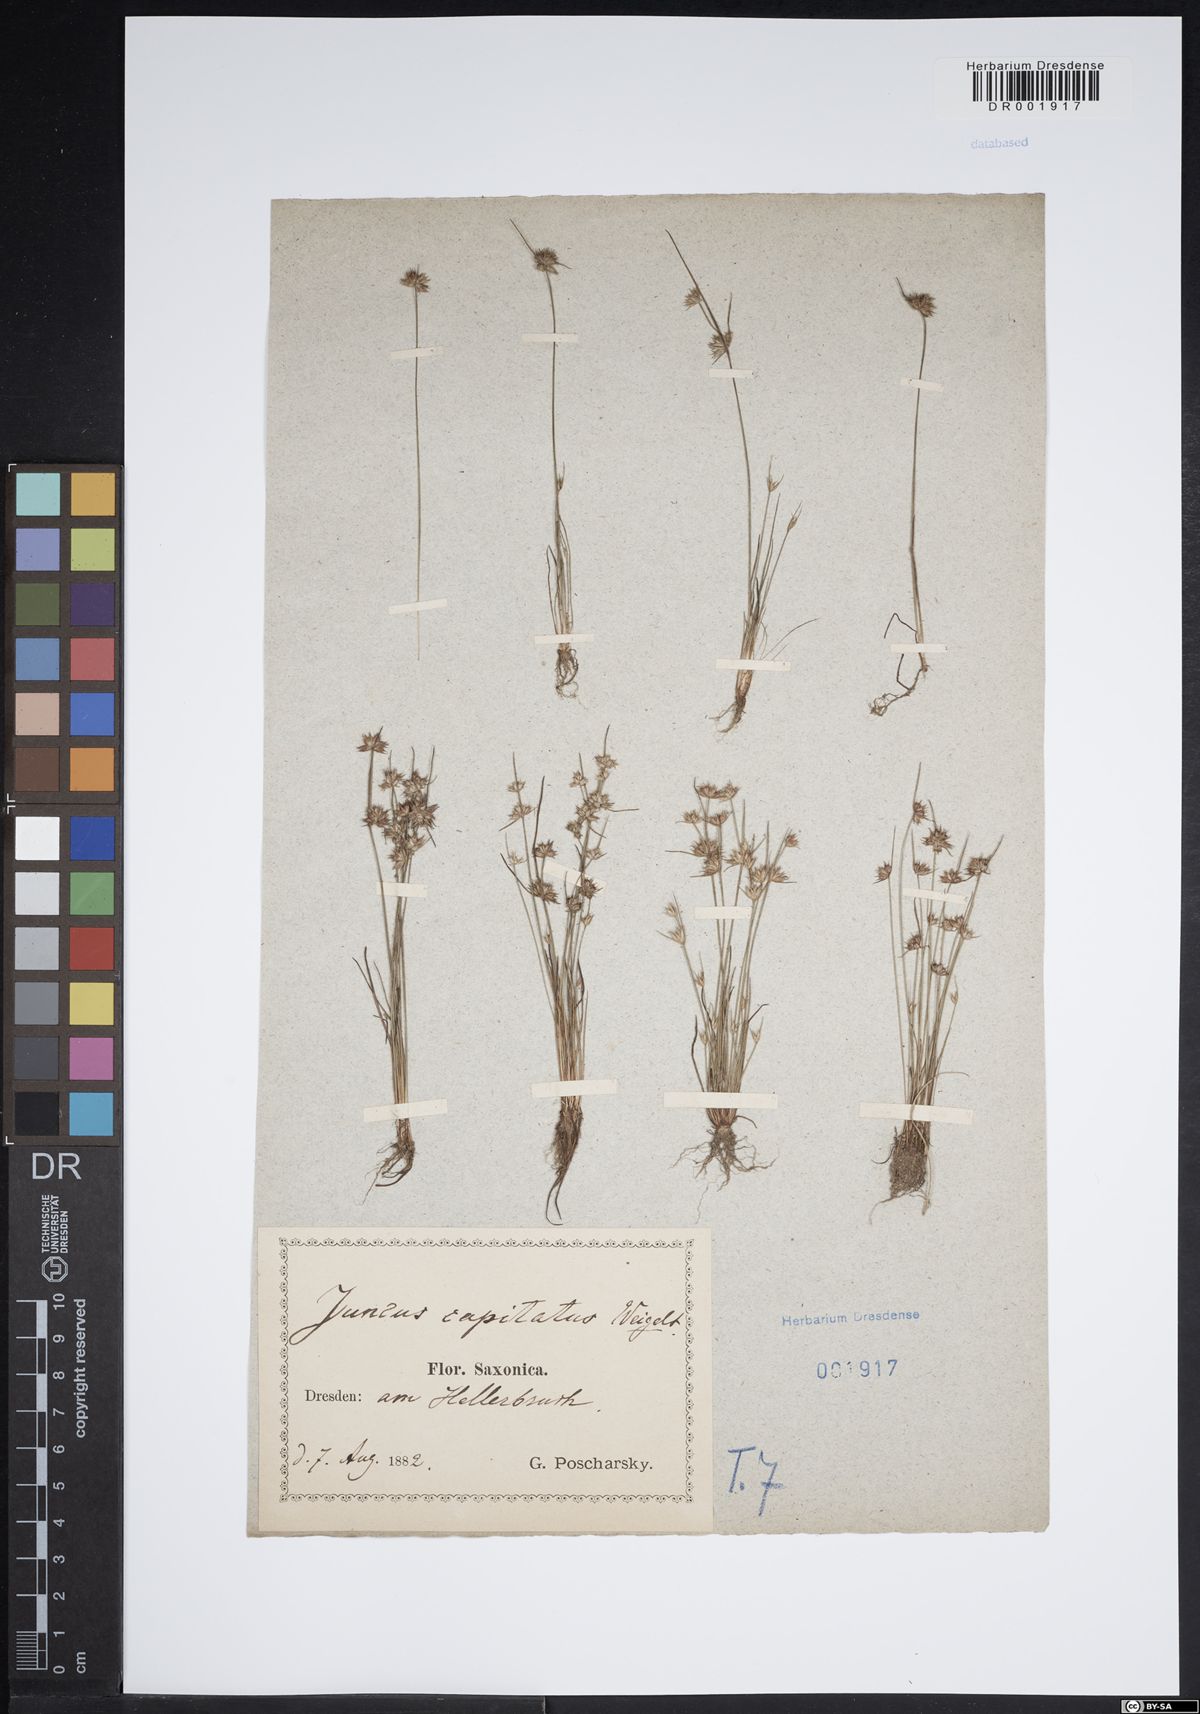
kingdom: Plantae
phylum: Tracheophyta
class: Liliopsida
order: Poales
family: Juncaceae
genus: Juncus
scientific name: Juncus capitatus
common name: Dwarf rush
